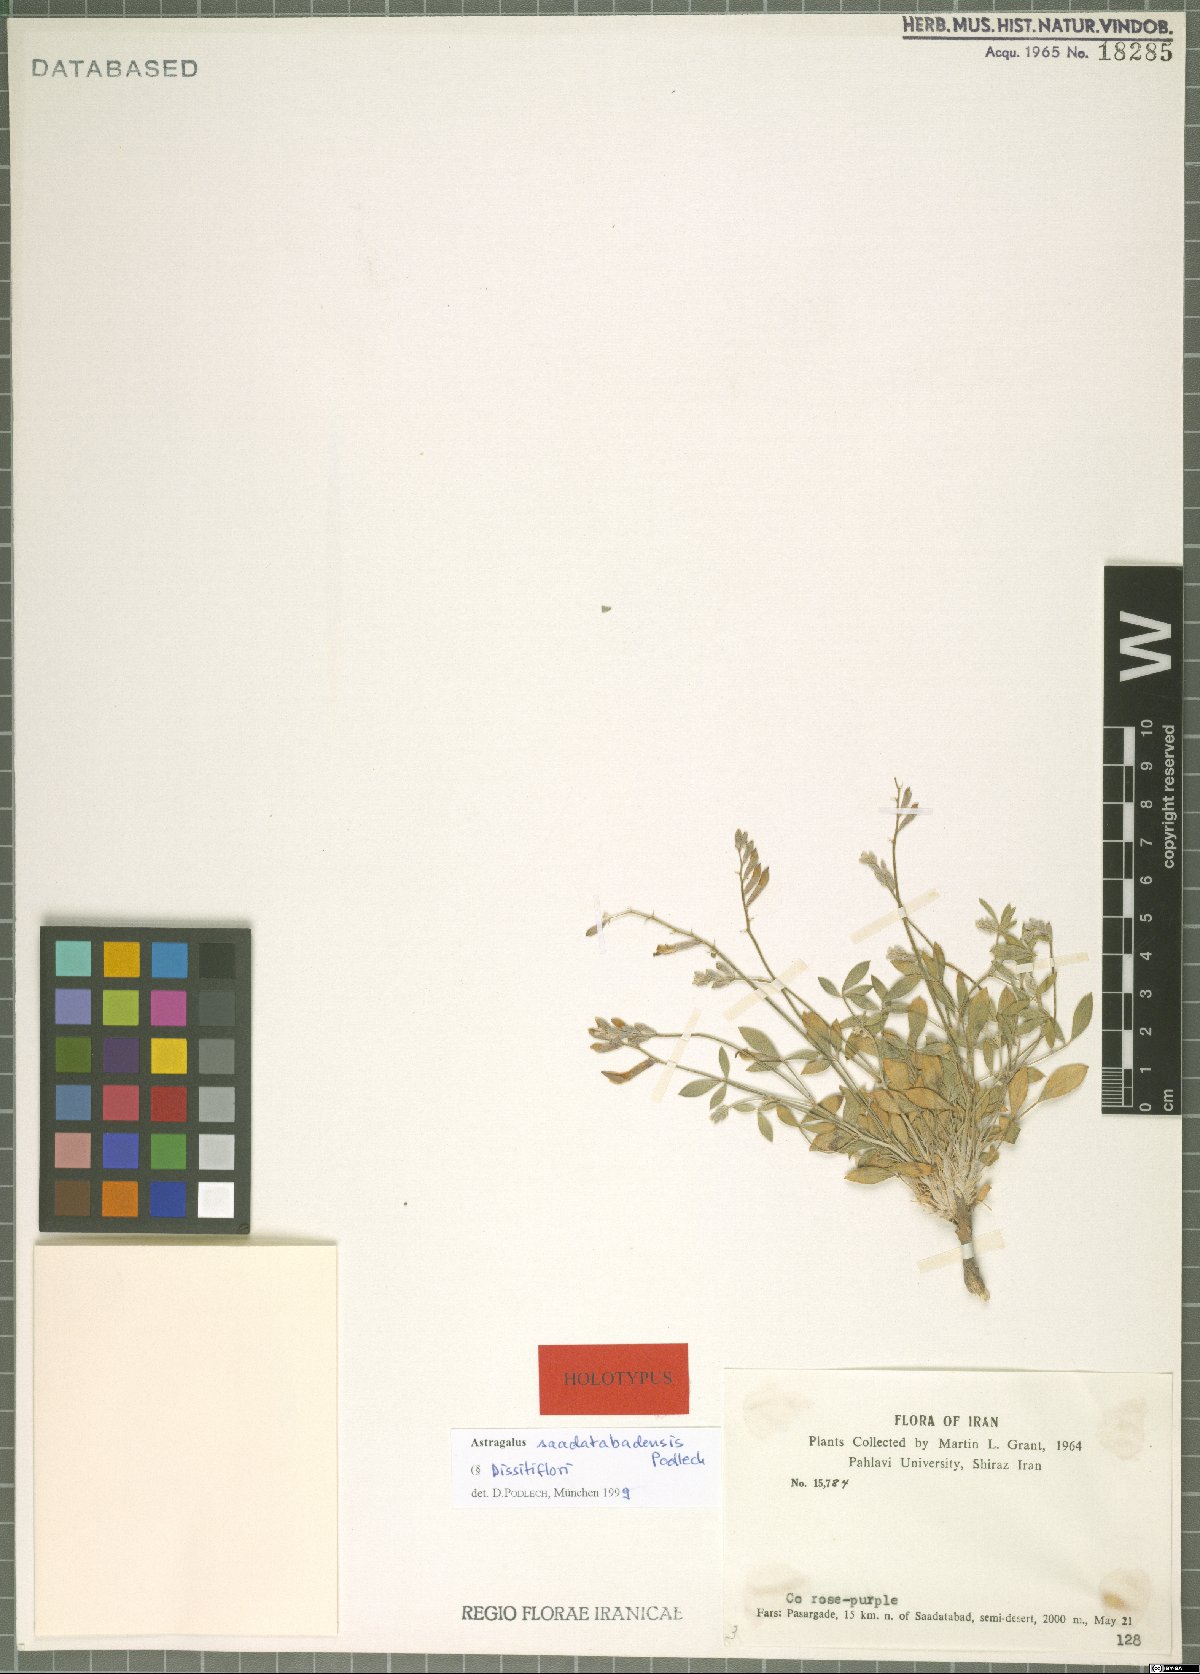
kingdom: Plantae
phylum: Tracheophyta
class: Magnoliopsida
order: Fabales
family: Fabaceae
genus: Astragalus
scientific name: Astragalus saadatabadensis
